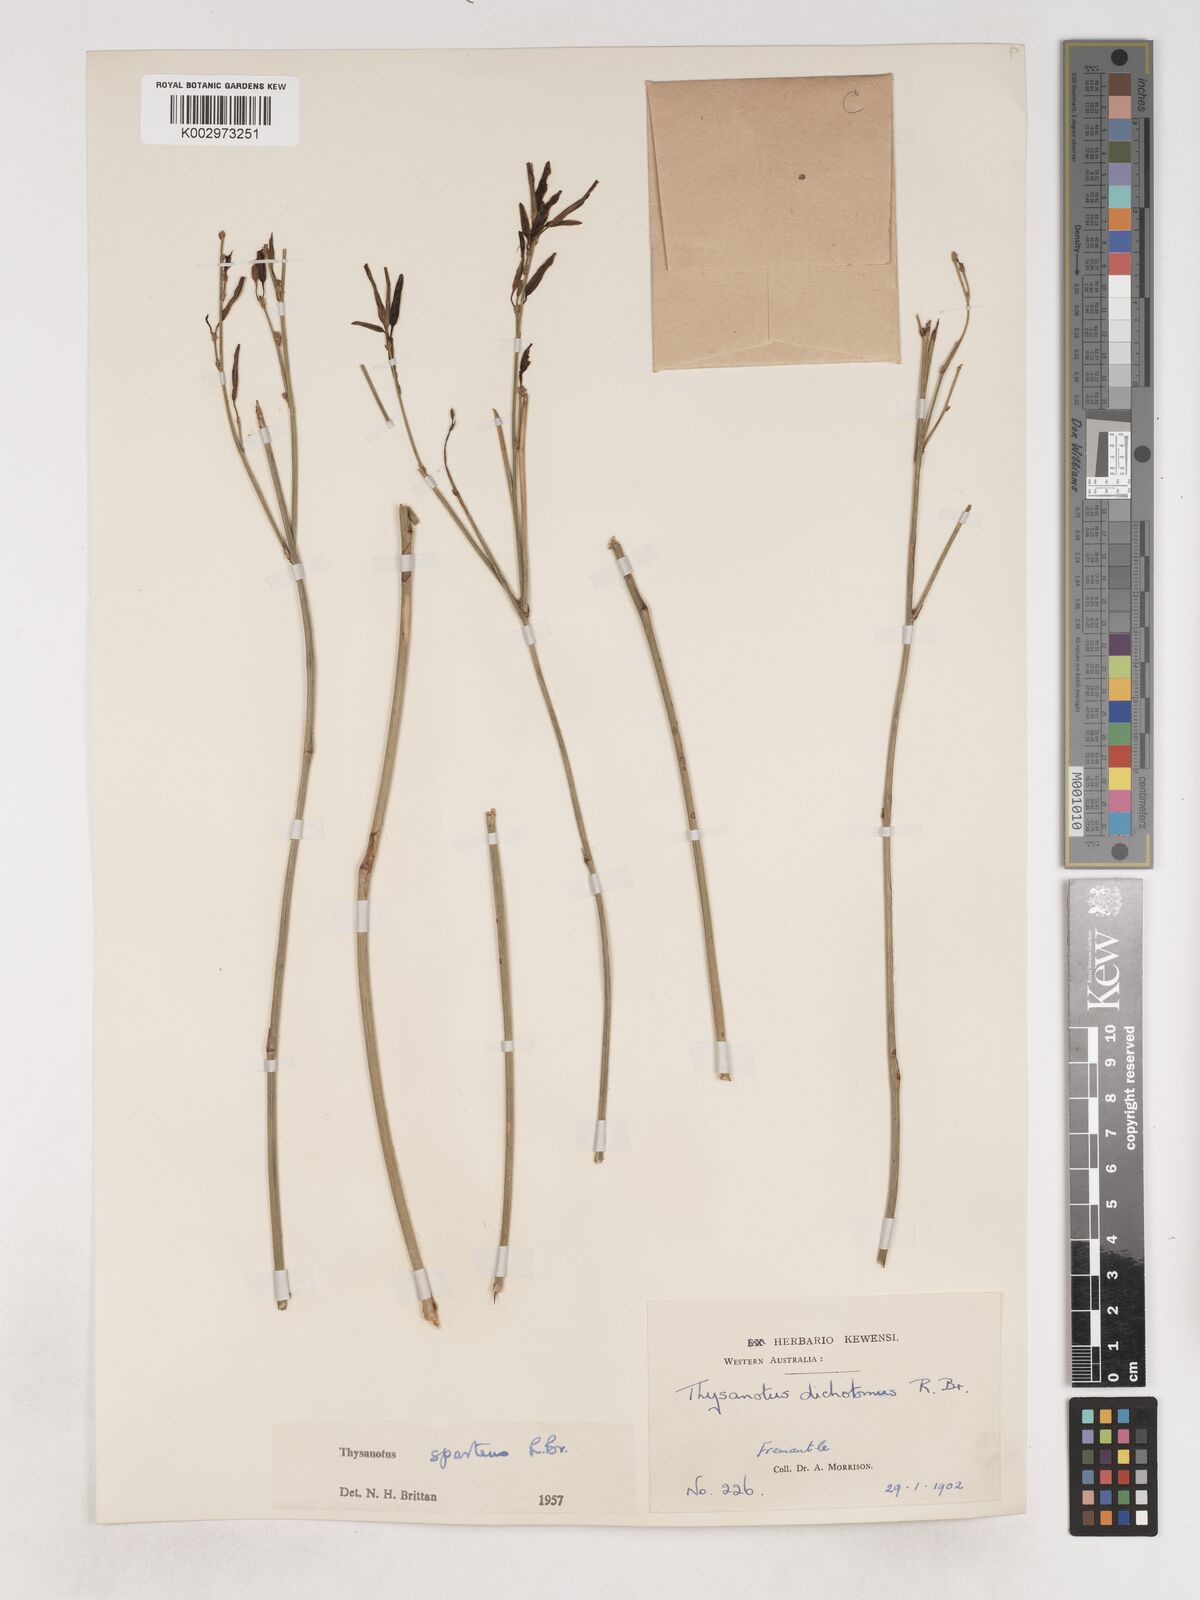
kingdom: Plantae
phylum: Tracheophyta
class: Liliopsida
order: Asparagales
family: Asparagaceae
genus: Thysanotus
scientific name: Thysanotus sparteus
